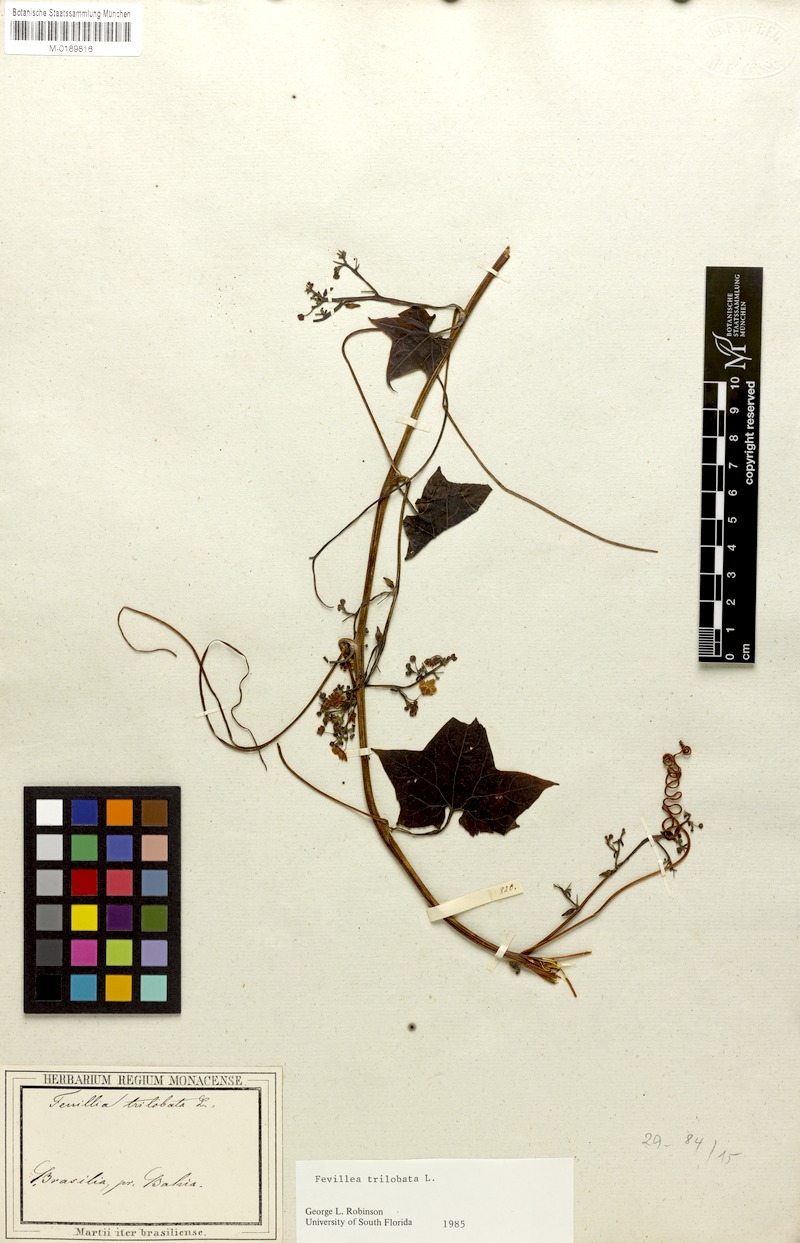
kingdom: Plantae
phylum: Tracheophyta
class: Magnoliopsida
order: Cucurbitales
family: Cucurbitaceae
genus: Fevillea
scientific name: Fevillea trilobata
